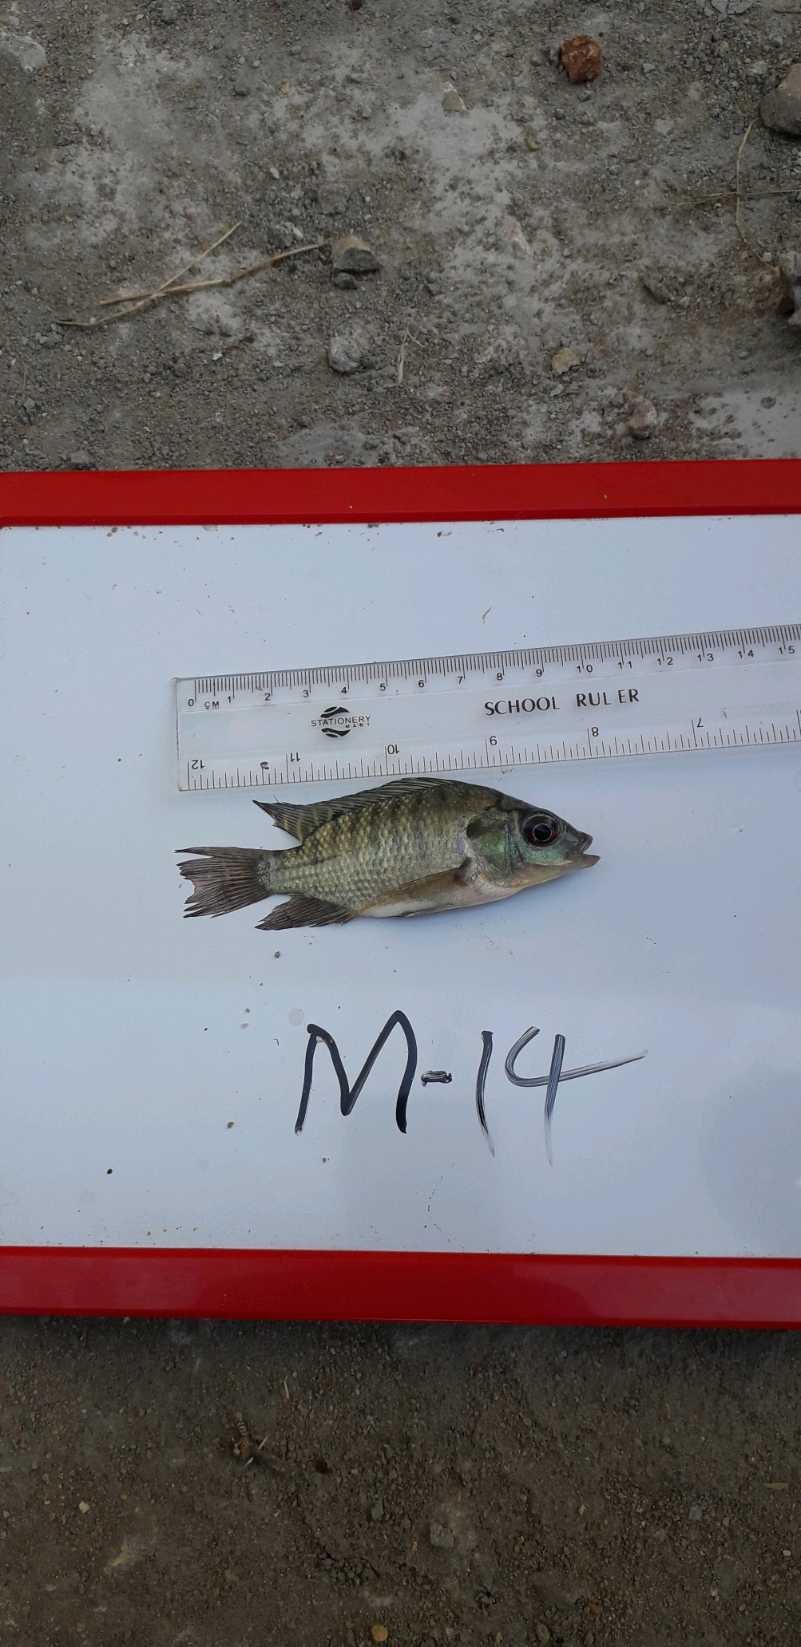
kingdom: Animalia
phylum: Chordata
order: Perciformes
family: Cichlidae
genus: Oreochromis
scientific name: Oreochromis niloticus
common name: Nile tilapia
